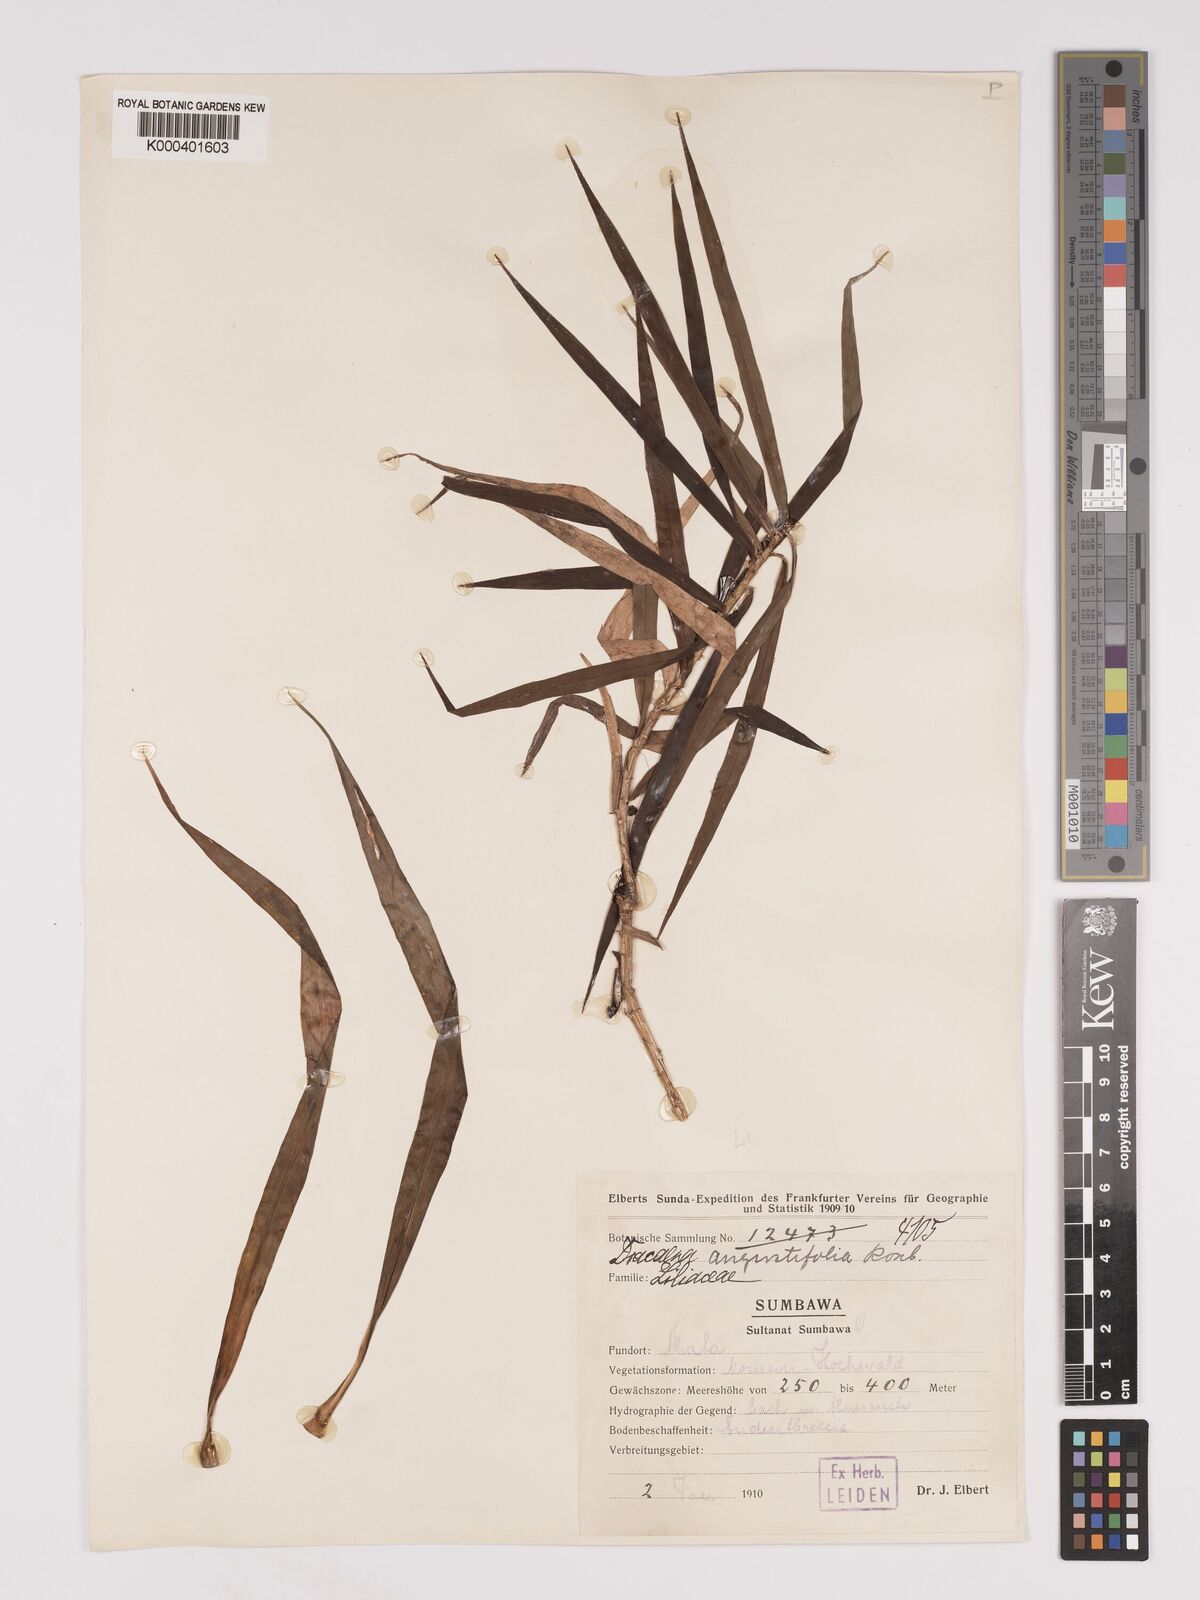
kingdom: Plantae
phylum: Tracheophyta
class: Liliopsida
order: Asparagales
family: Asparagaceae
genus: Dracaena
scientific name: Dracaena angustifolia
